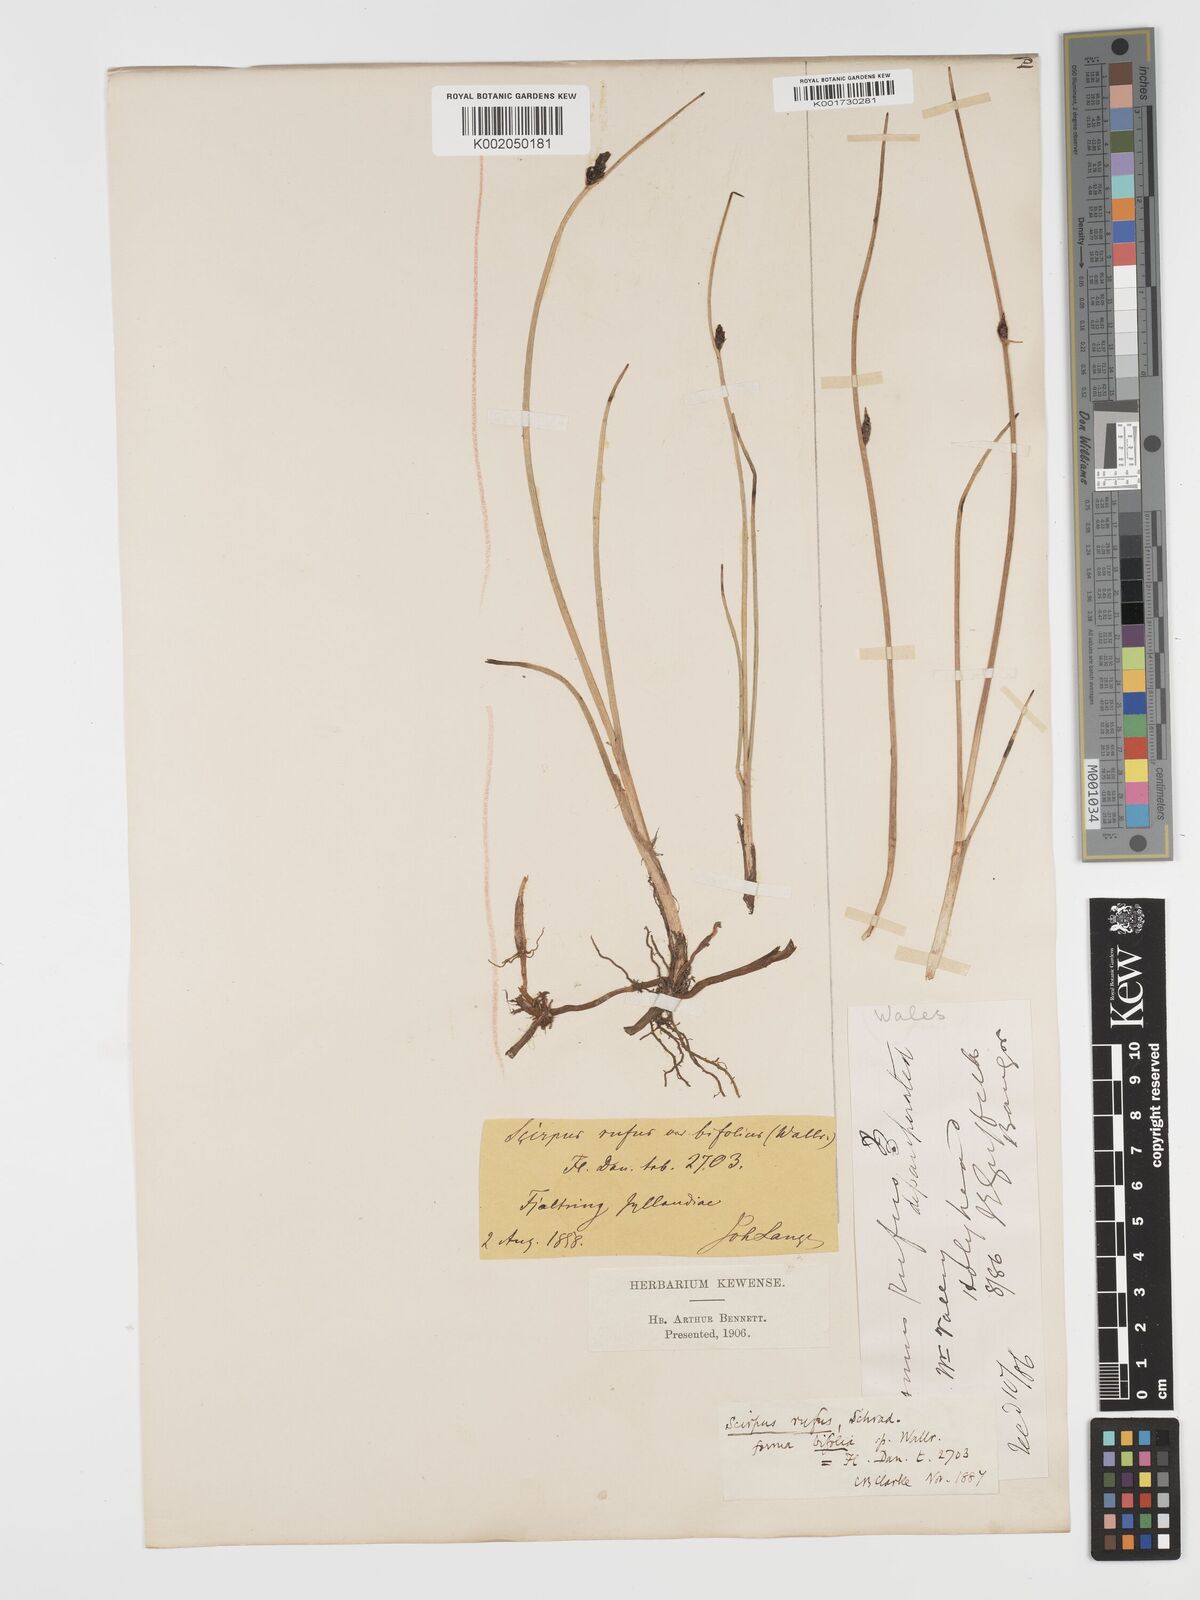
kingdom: Plantae
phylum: Tracheophyta
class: Liliopsida
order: Poales
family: Cyperaceae
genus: Blysmus
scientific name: Blysmus rufus
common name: Saltmarsh flat-sedge
